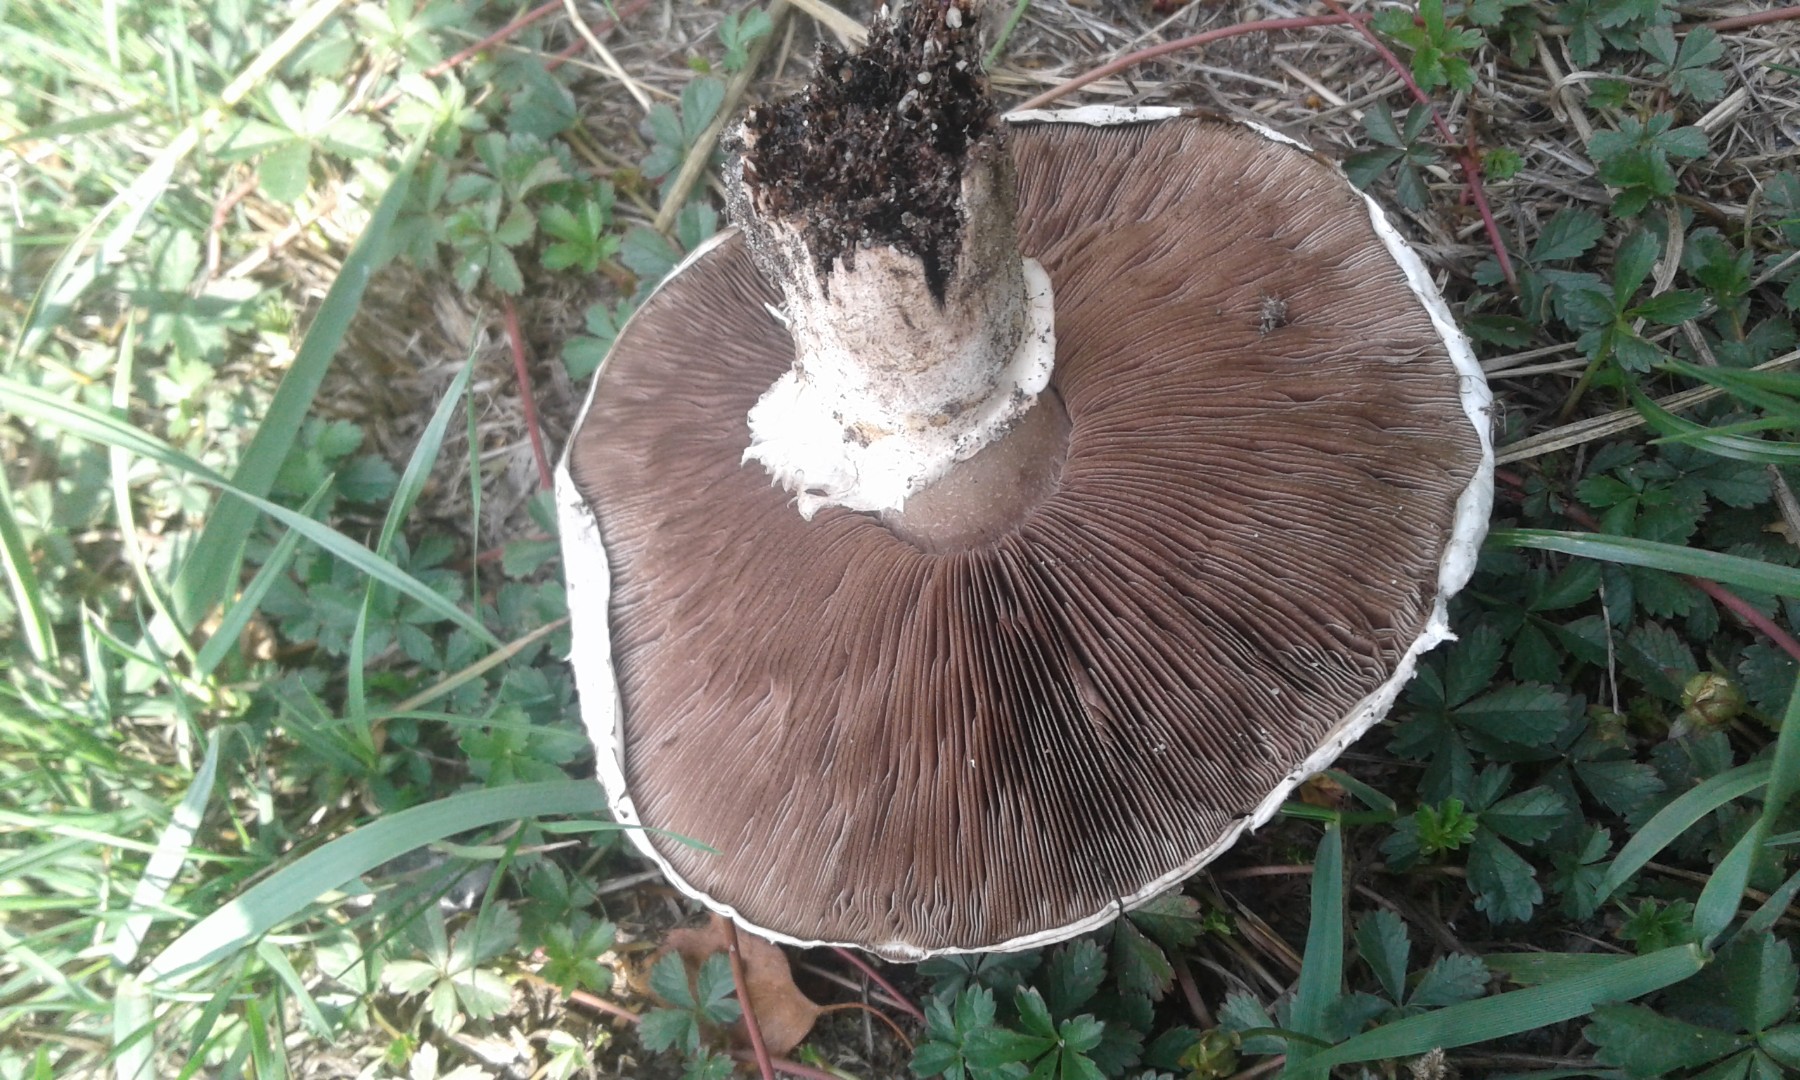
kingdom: Fungi
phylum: Basidiomycota
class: Agaricomycetes
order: Agaricales
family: Agaricaceae
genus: Agaricus
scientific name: Agaricus bernardii
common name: strandengs-champignon
